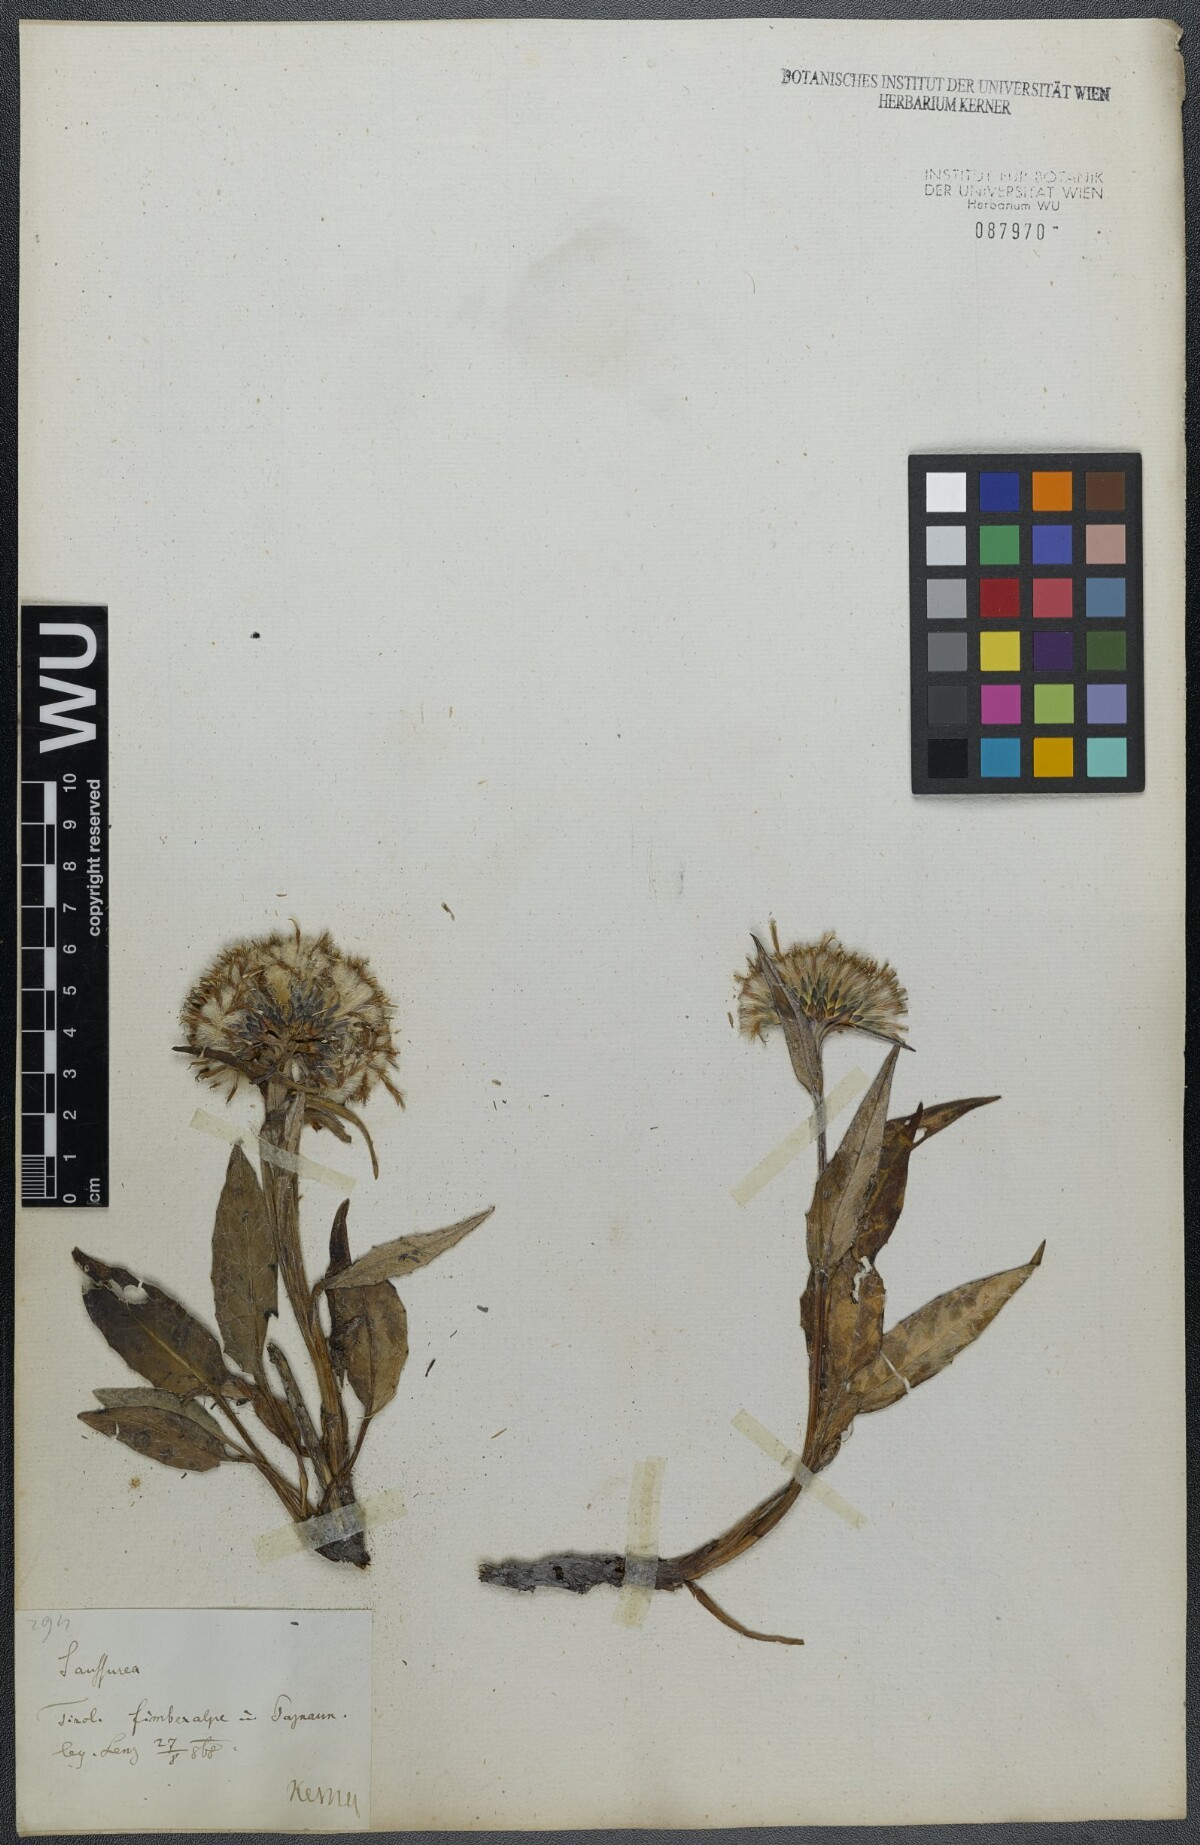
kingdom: Plantae
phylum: Tracheophyta
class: Magnoliopsida
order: Asterales
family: Asteraceae
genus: Saussurea
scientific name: Saussurea alpina
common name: Alpine saw-wort
